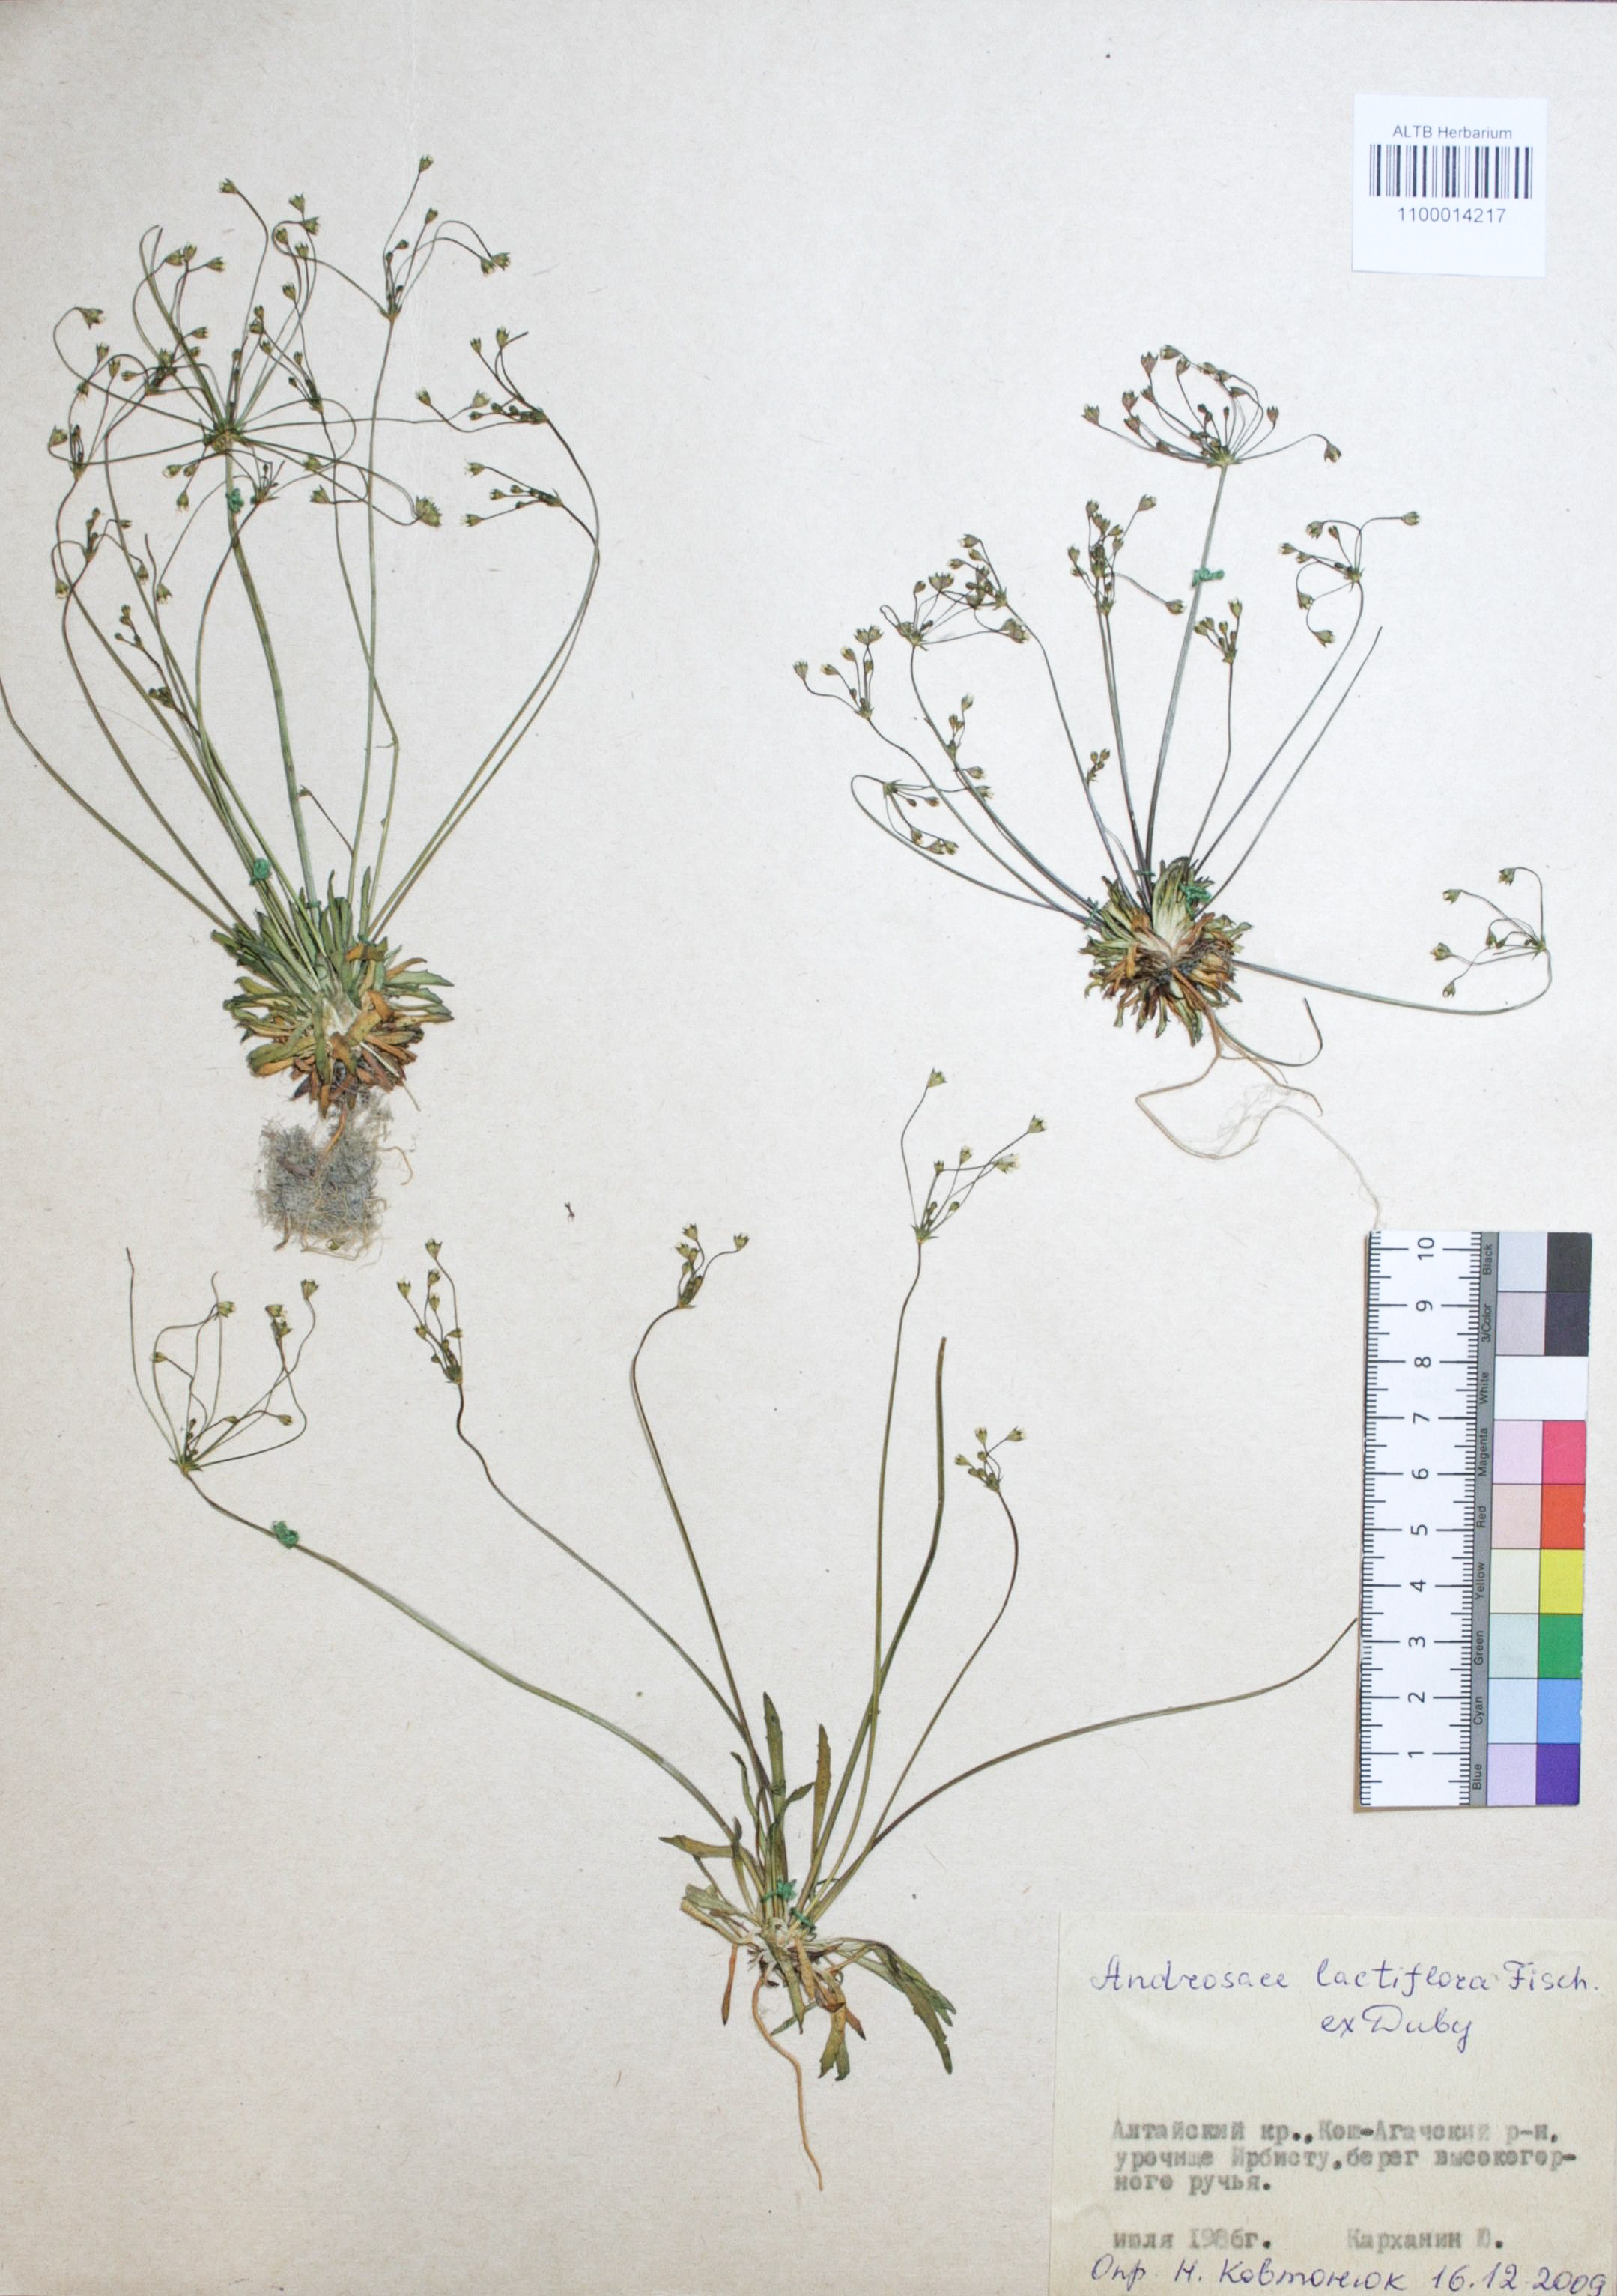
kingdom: Plantae
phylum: Tracheophyta
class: Magnoliopsida
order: Ericales
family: Primulaceae
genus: Androsace
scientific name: Androsace lactiflora
